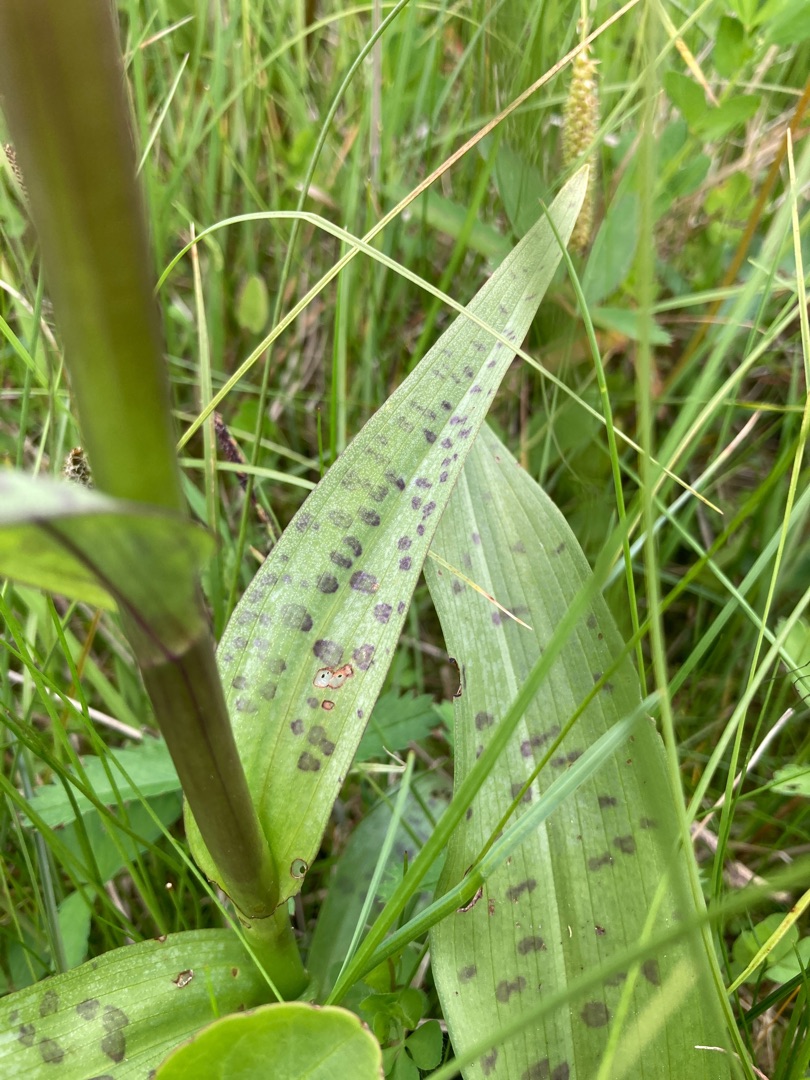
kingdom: Plantae
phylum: Tracheophyta
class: Liliopsida
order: Asparagales
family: Orchidaceae
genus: Dactylorhiza
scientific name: Dactylorhiza majalis
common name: Maj-gøgeurt
